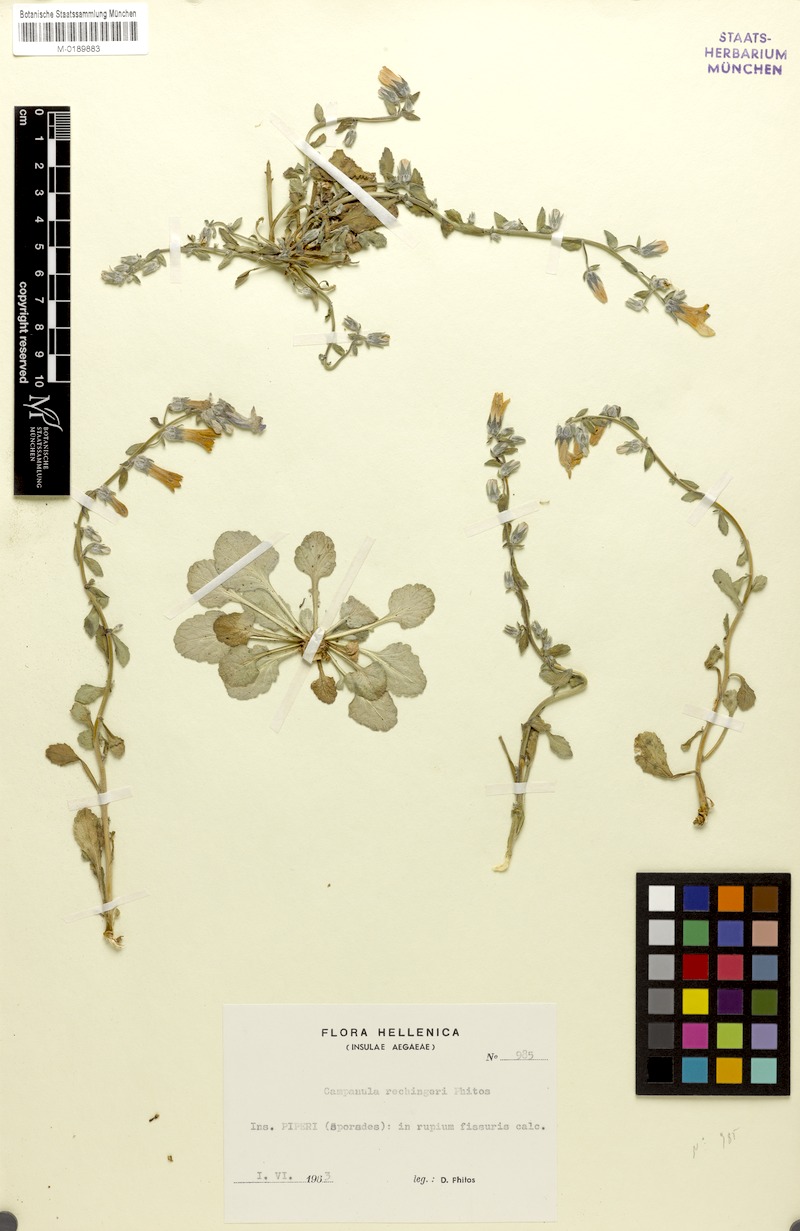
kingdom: Plantae
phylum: Tracheophyta
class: Magnoliopsida
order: Asterales
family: Campanulaceae
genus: Campanula
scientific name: Campanula rechingeri
